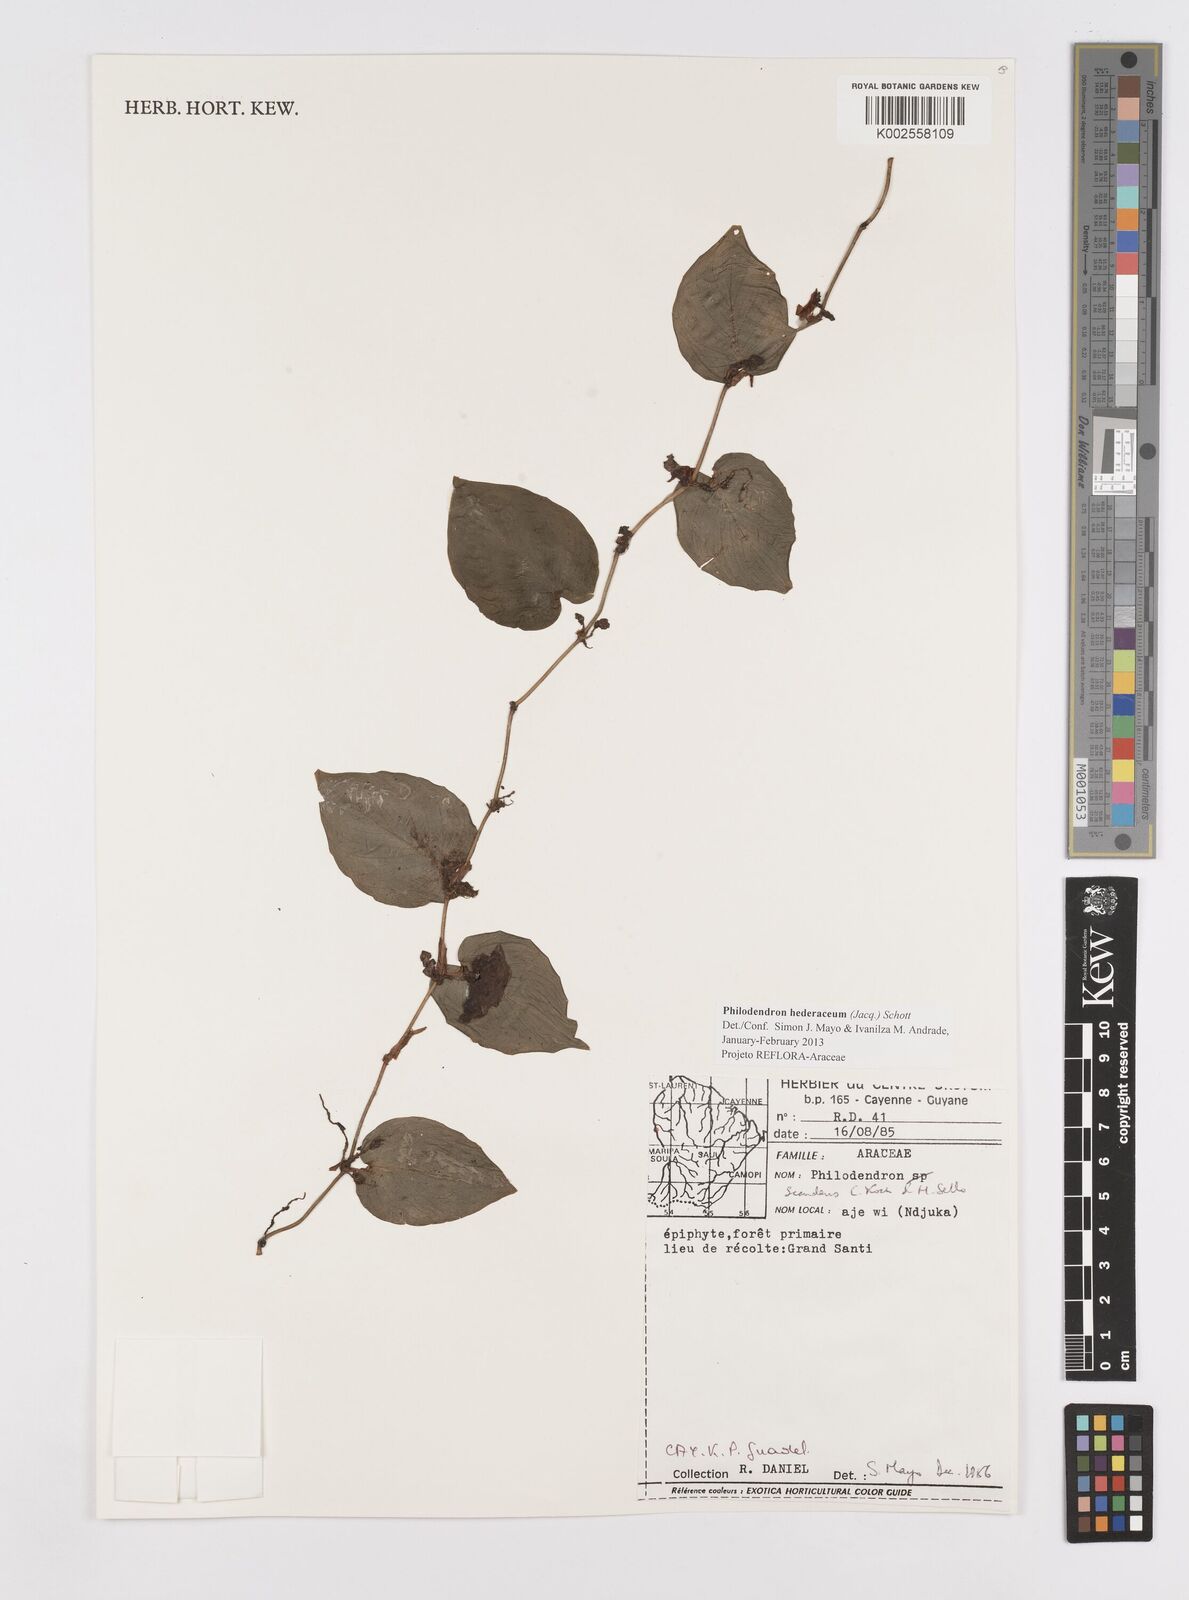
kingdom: Plantae
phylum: Tracheophyta
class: Liliopsida
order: Alismatales
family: Araceae
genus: Philodendron
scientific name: Philodendron hederaceum
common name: Vilevine
